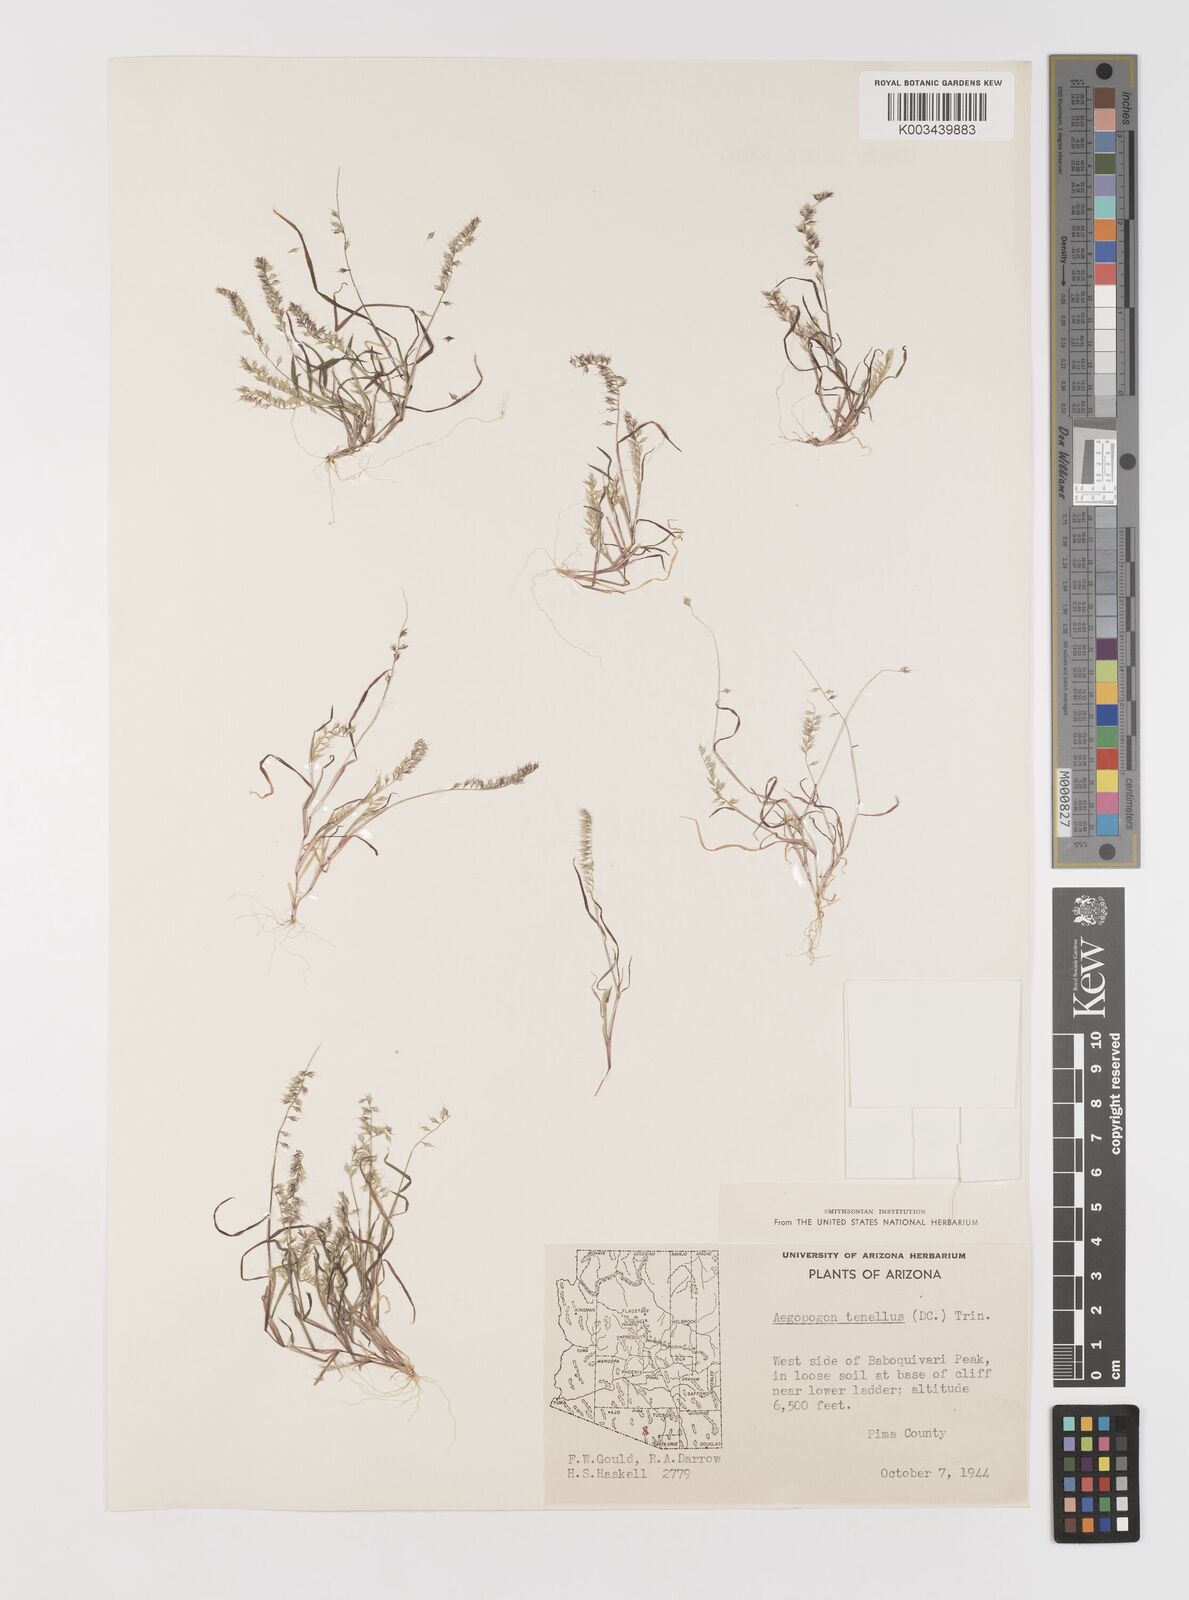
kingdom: Plantae
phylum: Tracheophyta
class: Liliopsida
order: Poales
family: Poaceae
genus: Muhlenbergia
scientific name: Muhlenbergia uniseta
